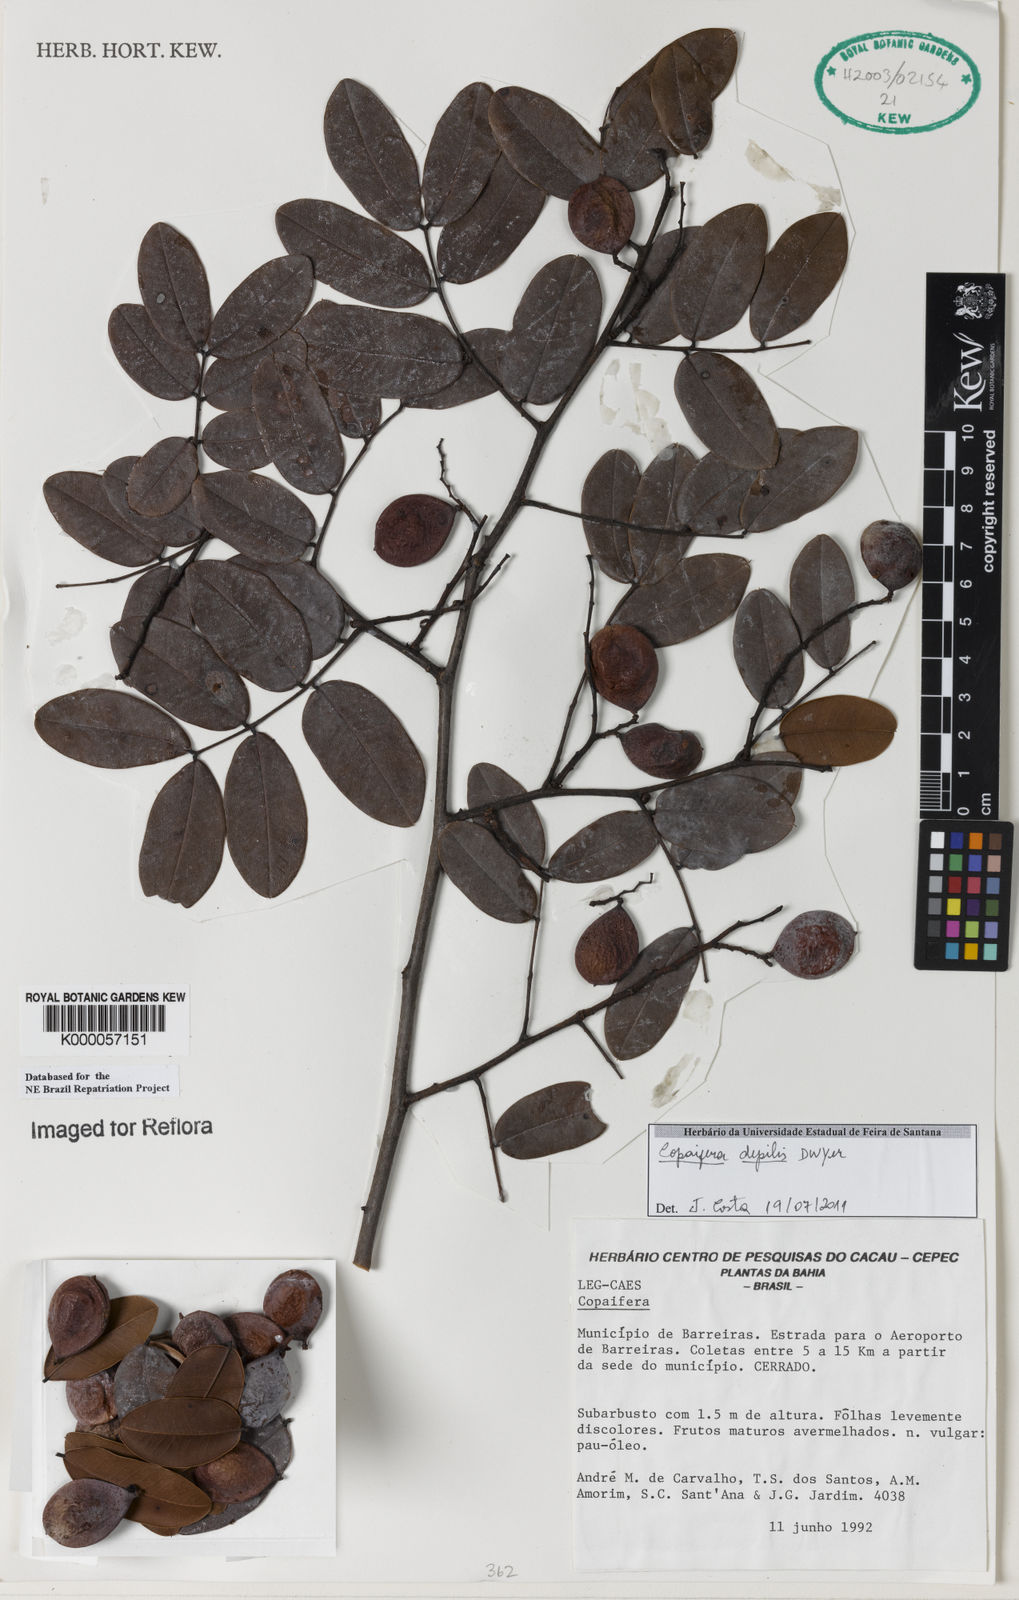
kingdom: Plantae
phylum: Tracheophyta
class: Magnoliopsida
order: Fabales
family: Fabaceae
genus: Copaifera
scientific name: Copaifera depilis
